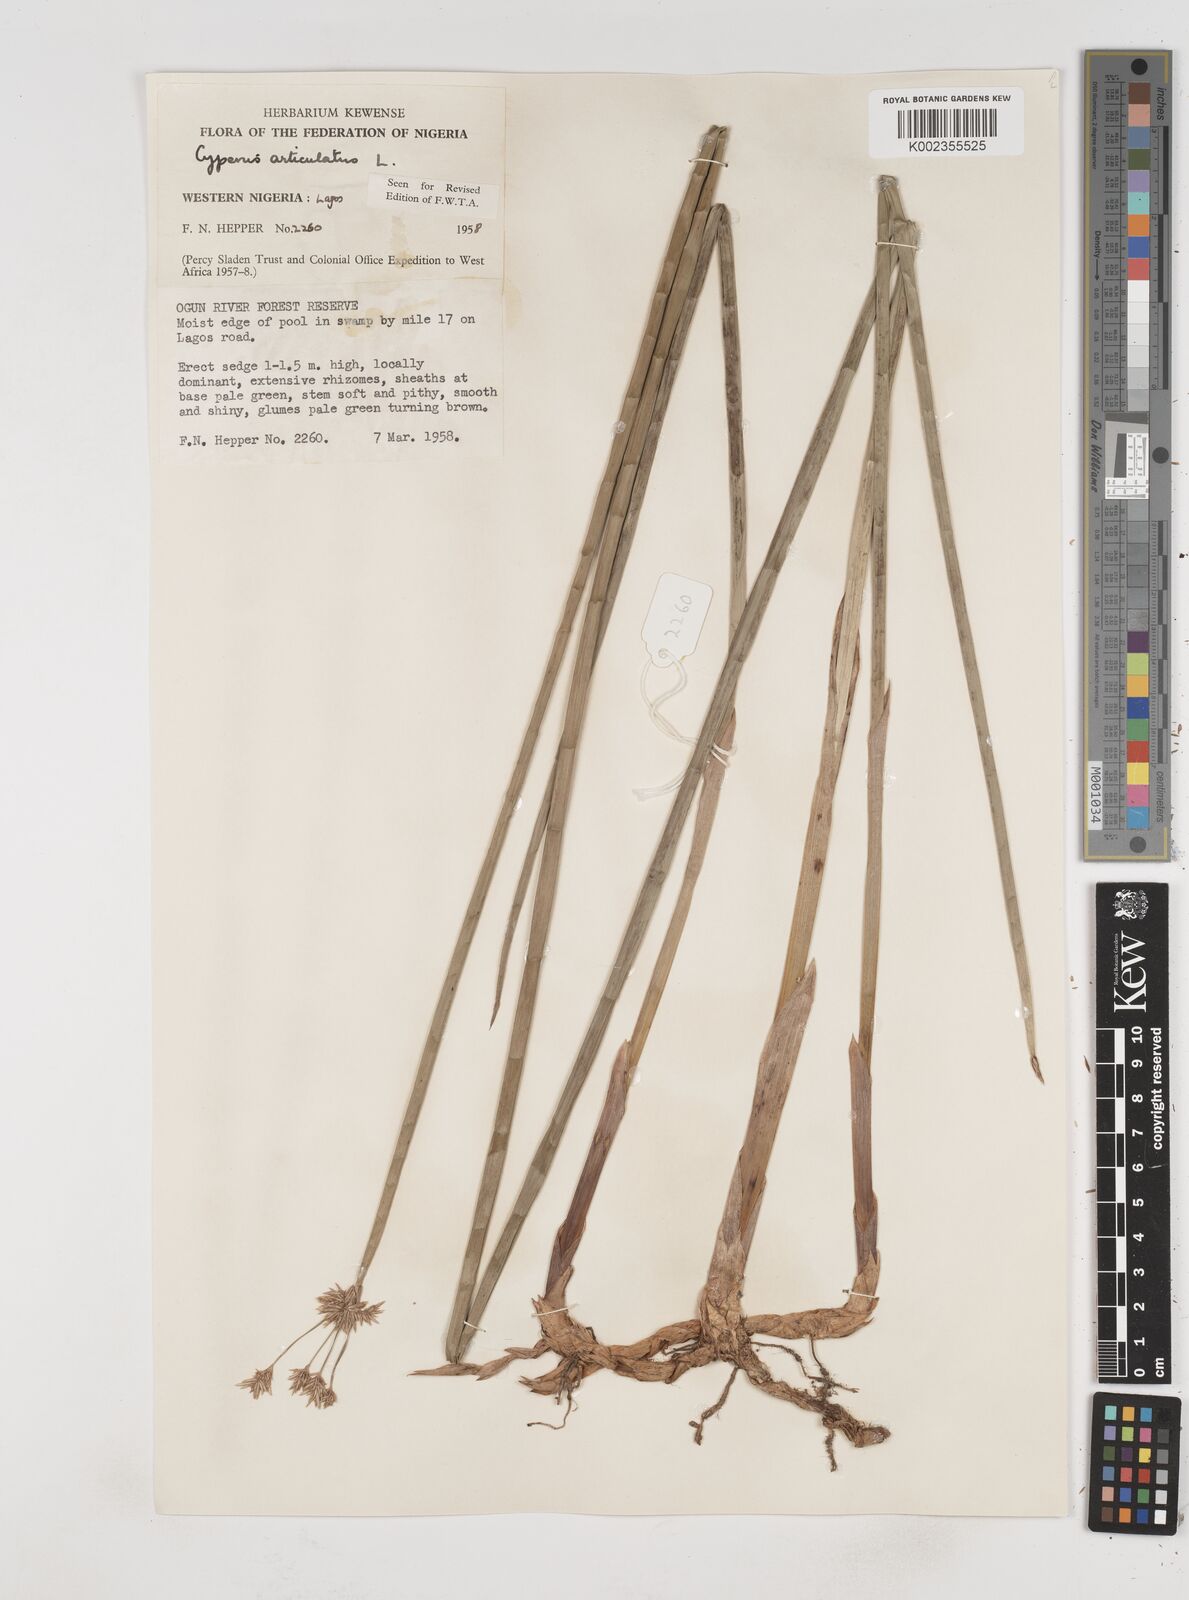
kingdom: Plantae
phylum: Tracheophyta
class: Liliopsida
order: Poales
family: Cyperaceae
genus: Cyperus
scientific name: Cyperus articulatus
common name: Jointed flatsedge
